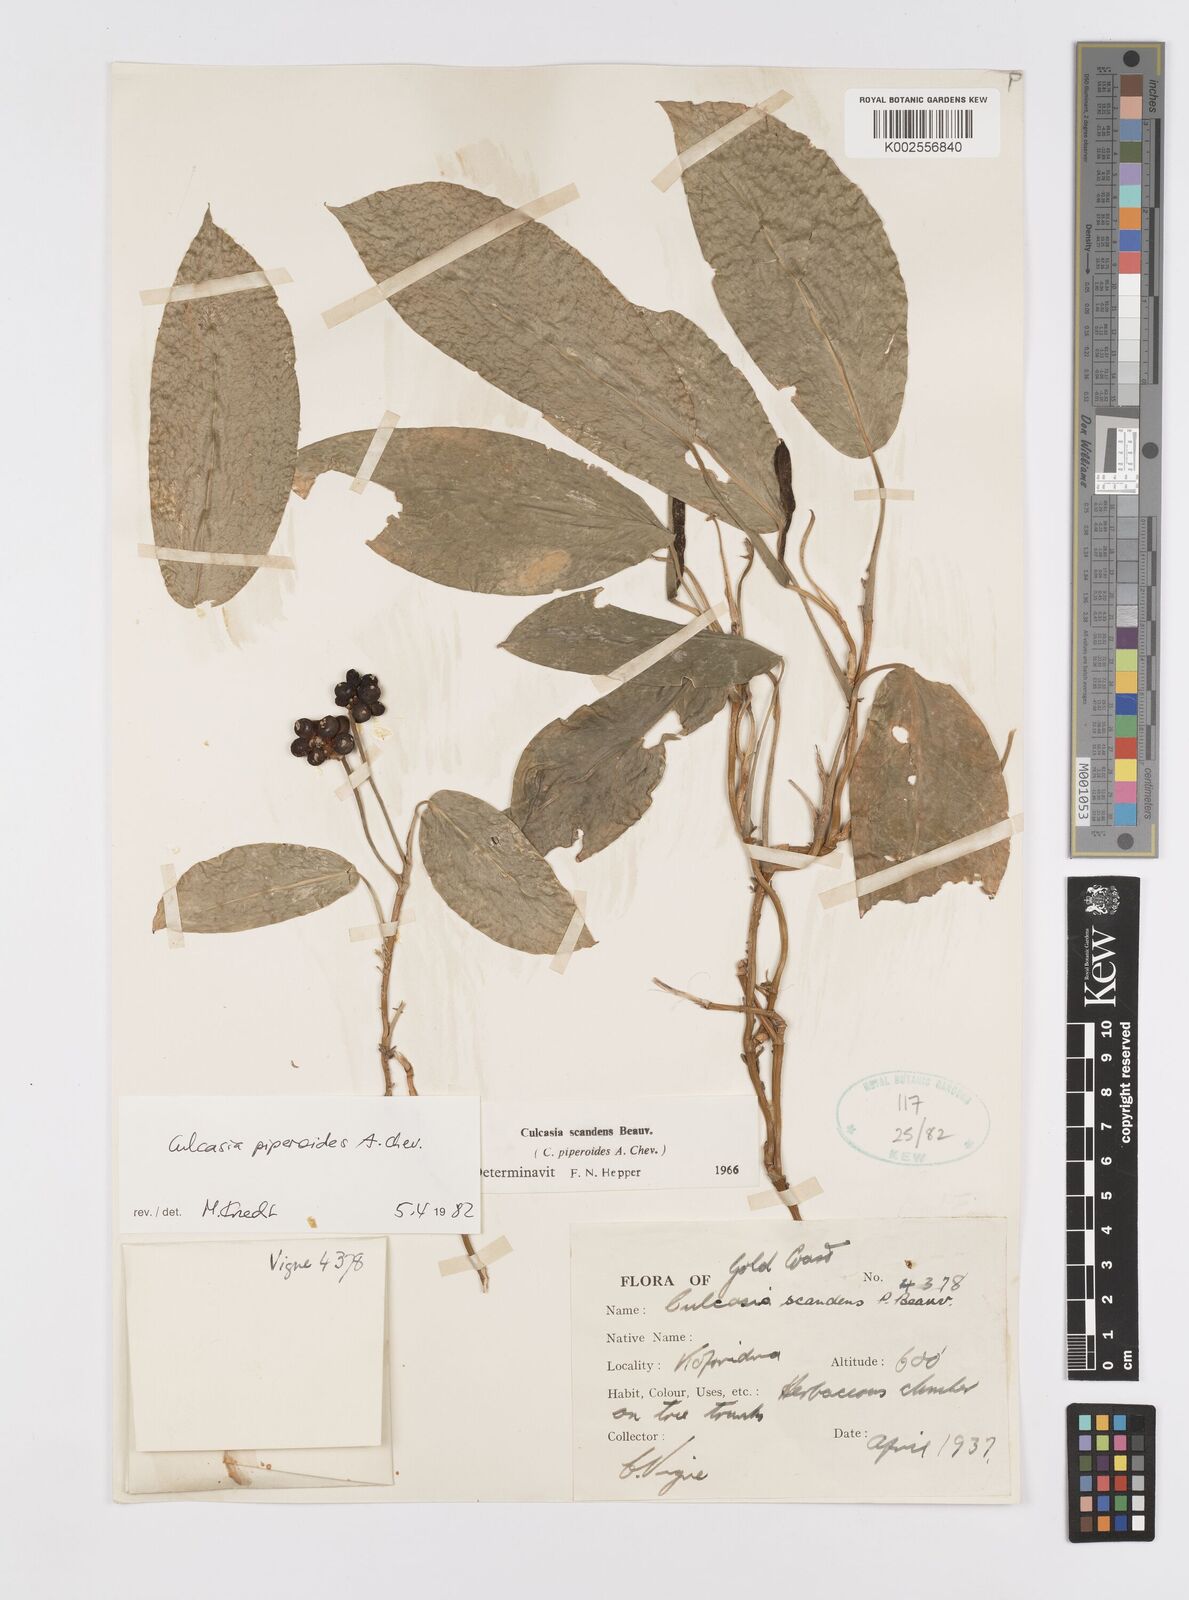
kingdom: Plantae
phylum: Tracheophyta
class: Liliopsida
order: Alismatales
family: Araceae
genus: Culcasia
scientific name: Culcasia parviflora
